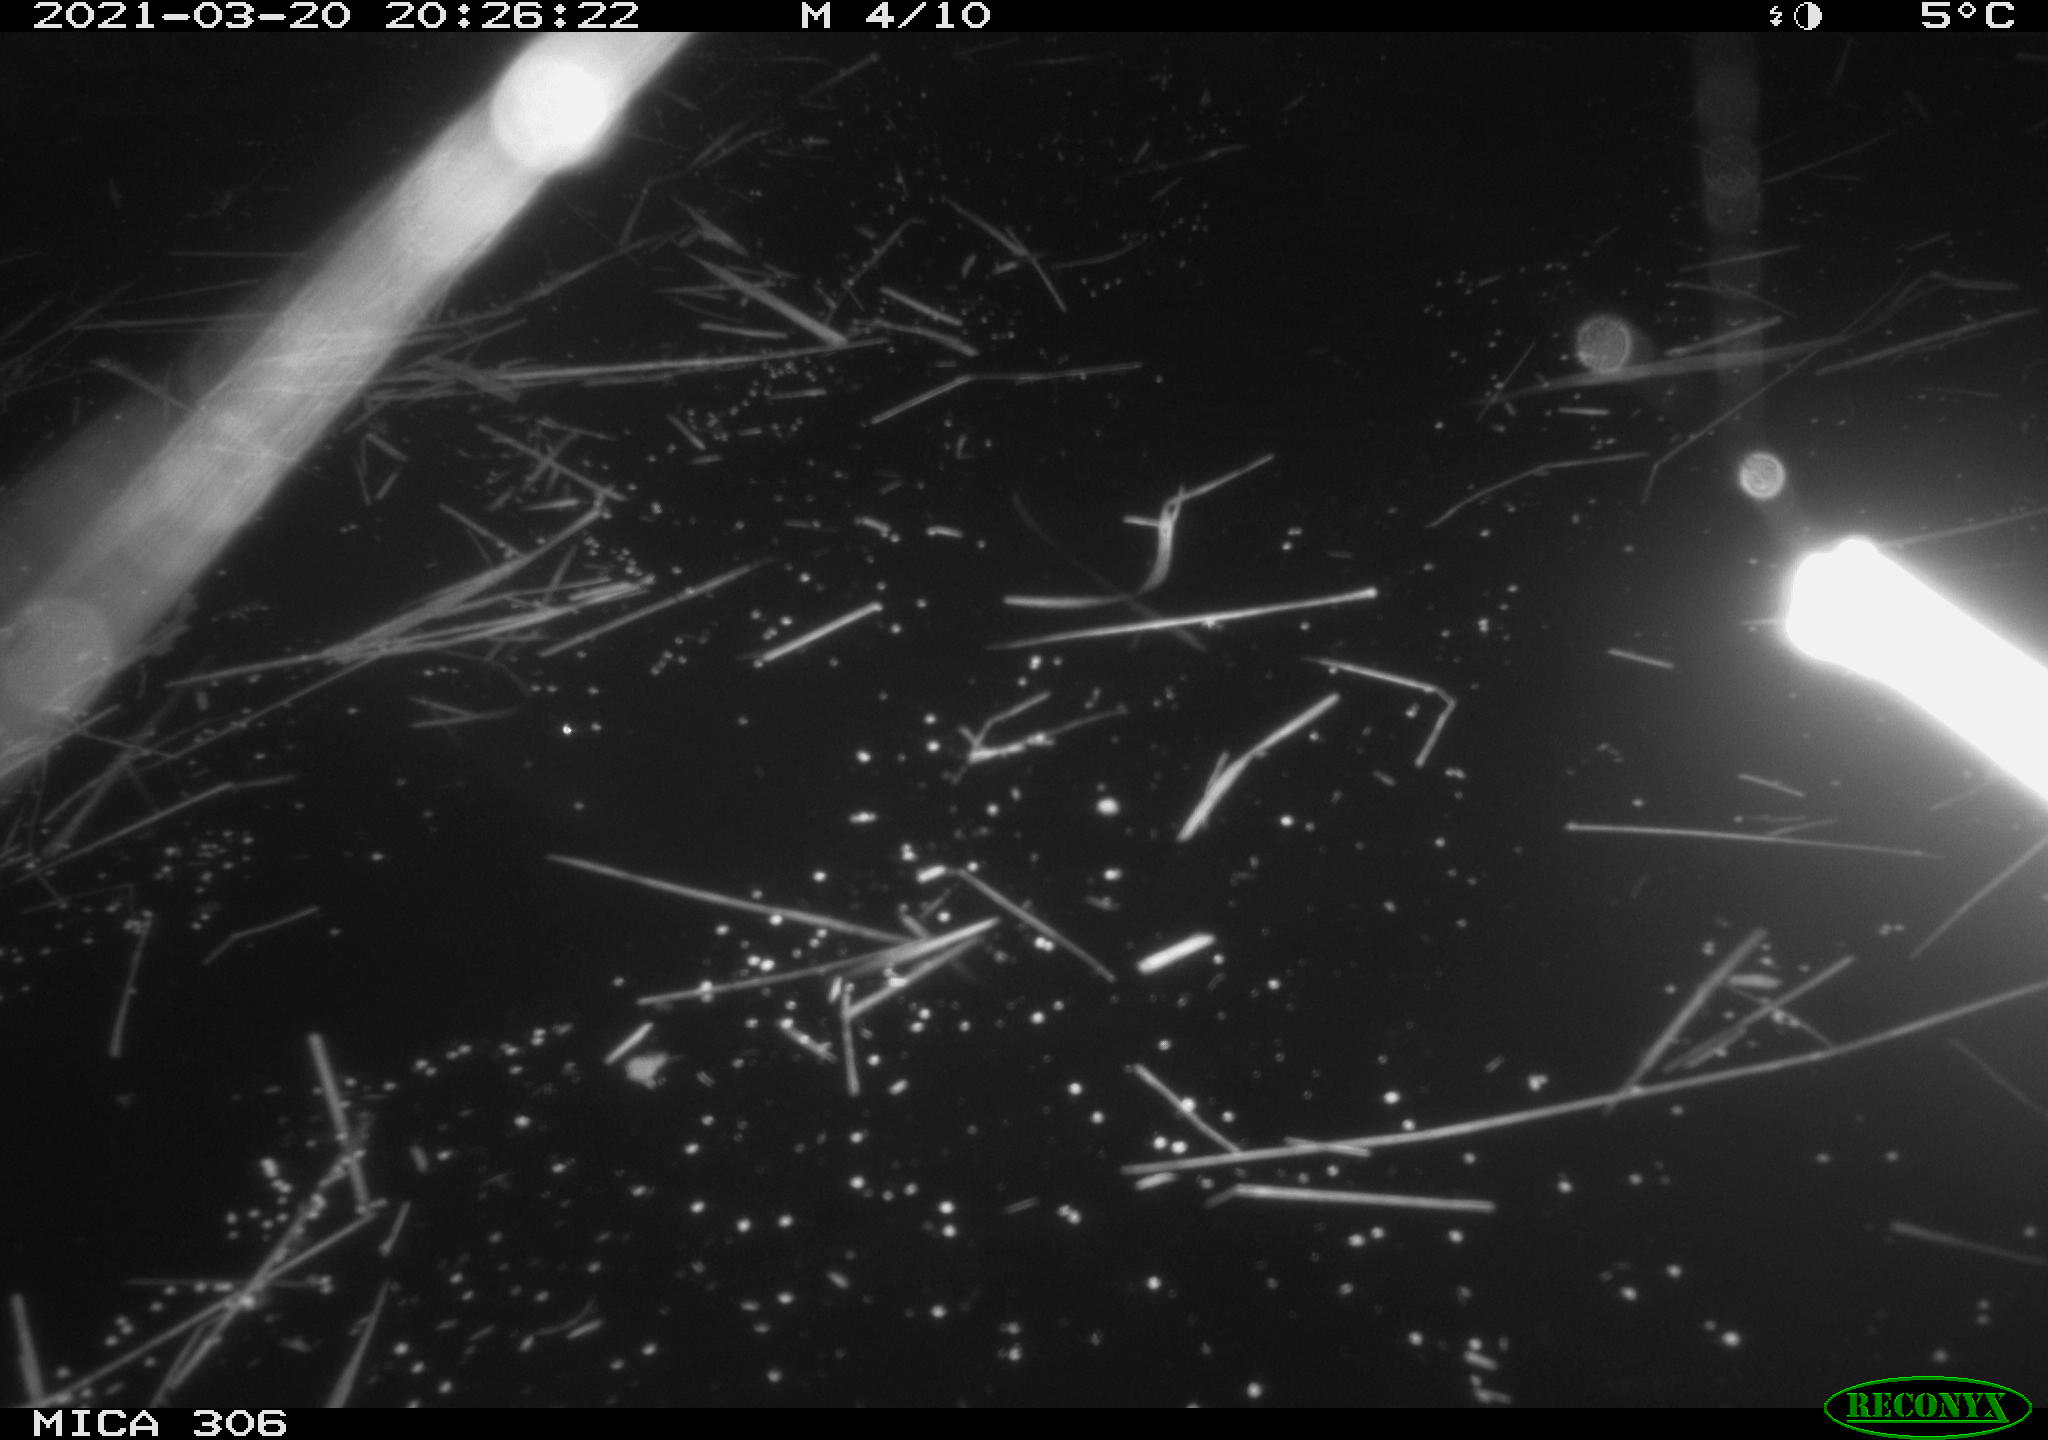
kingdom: Animalia
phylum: Chordata
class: Mammalia
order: Rodentia
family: Cricetidae
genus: Ondatra
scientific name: Ondatra zibethicus
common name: Muskrat
